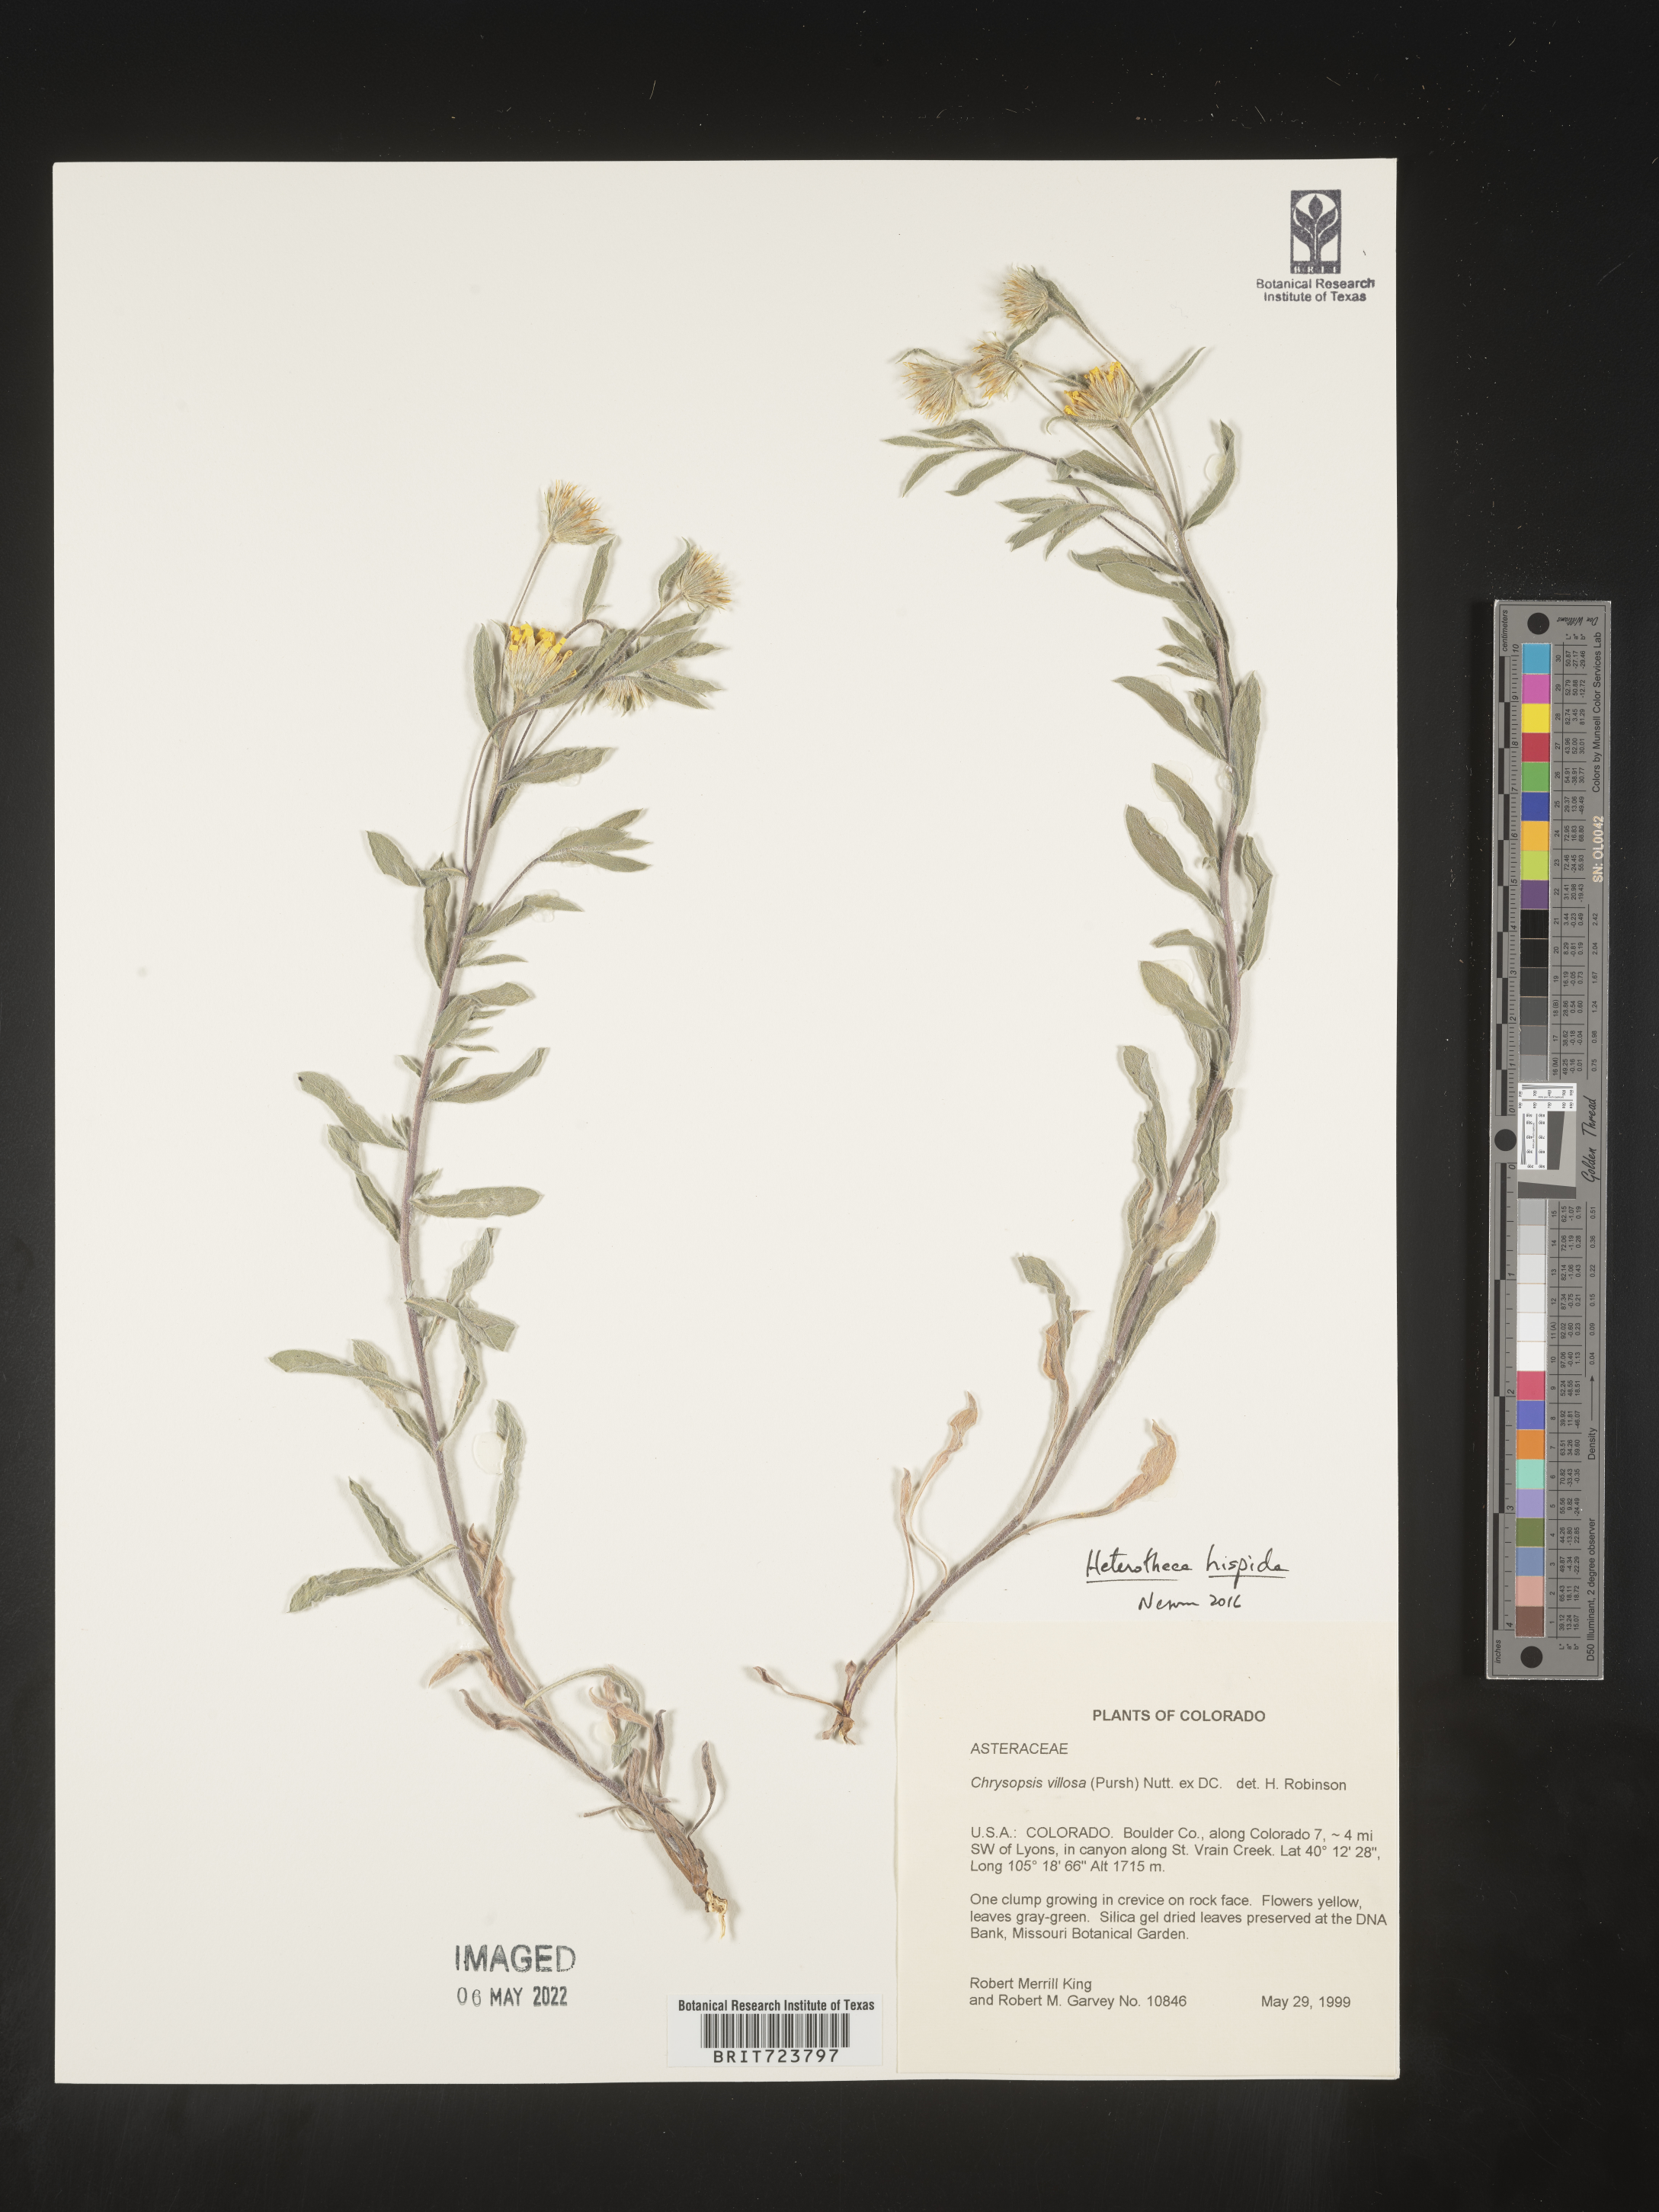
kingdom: Plantae
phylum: Tracheophyta
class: Magnoliopsida
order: Asterales
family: Asteraceae
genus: Heterotheca
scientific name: Heterotheca hispida
